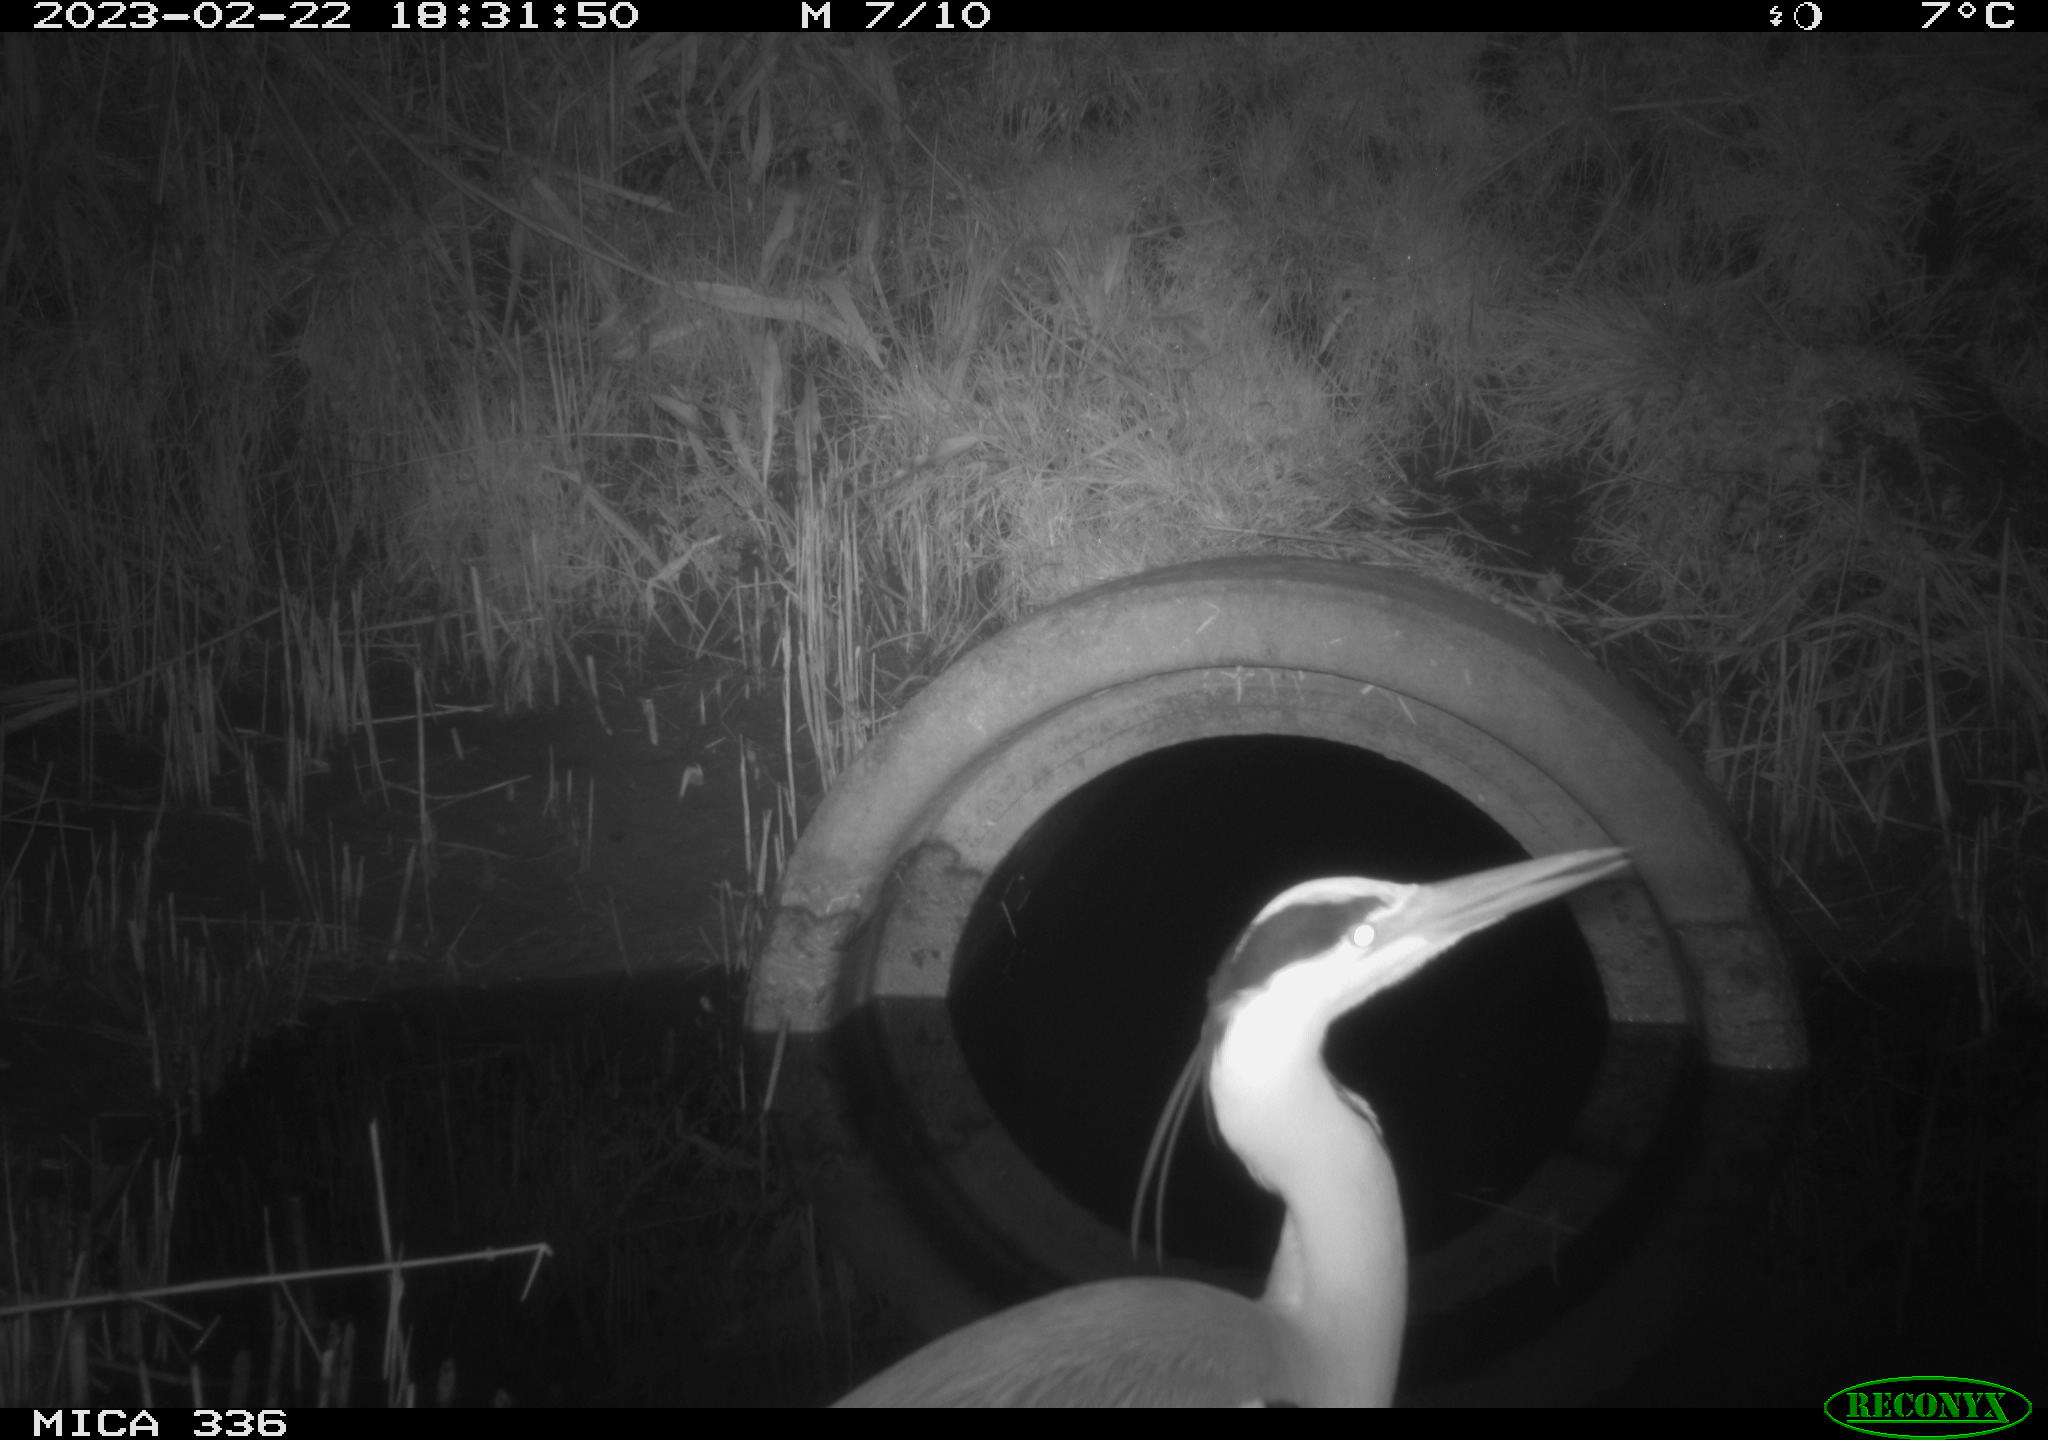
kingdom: Animalia
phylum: Chordata
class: Aves
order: Pelecaniformes
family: Ardeidae
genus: Ardea
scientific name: Ardea cinerea
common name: Grey heron
